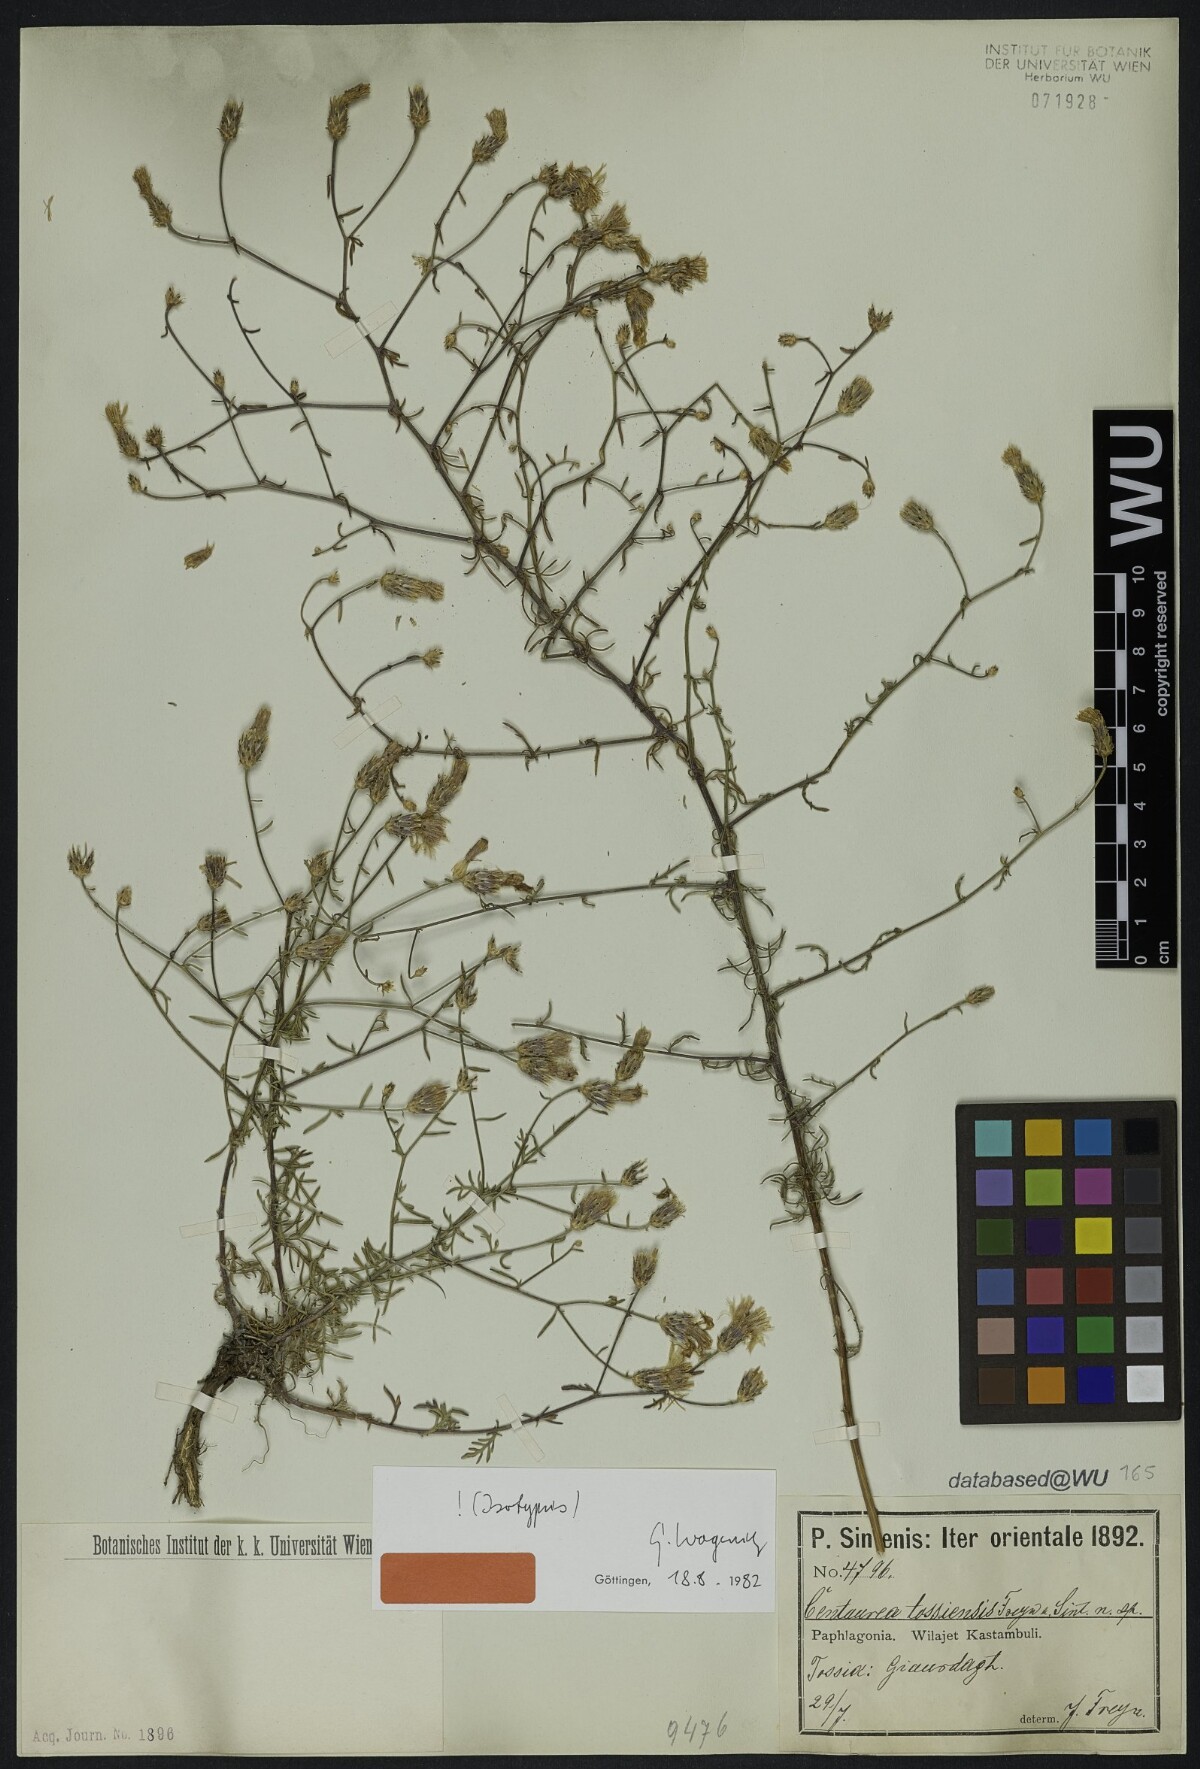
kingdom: Plantae
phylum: Tracheophyta
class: Magnoliopsida
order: Asterales
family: Asteraceae
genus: Centaurea
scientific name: Centaurea tossiensis
